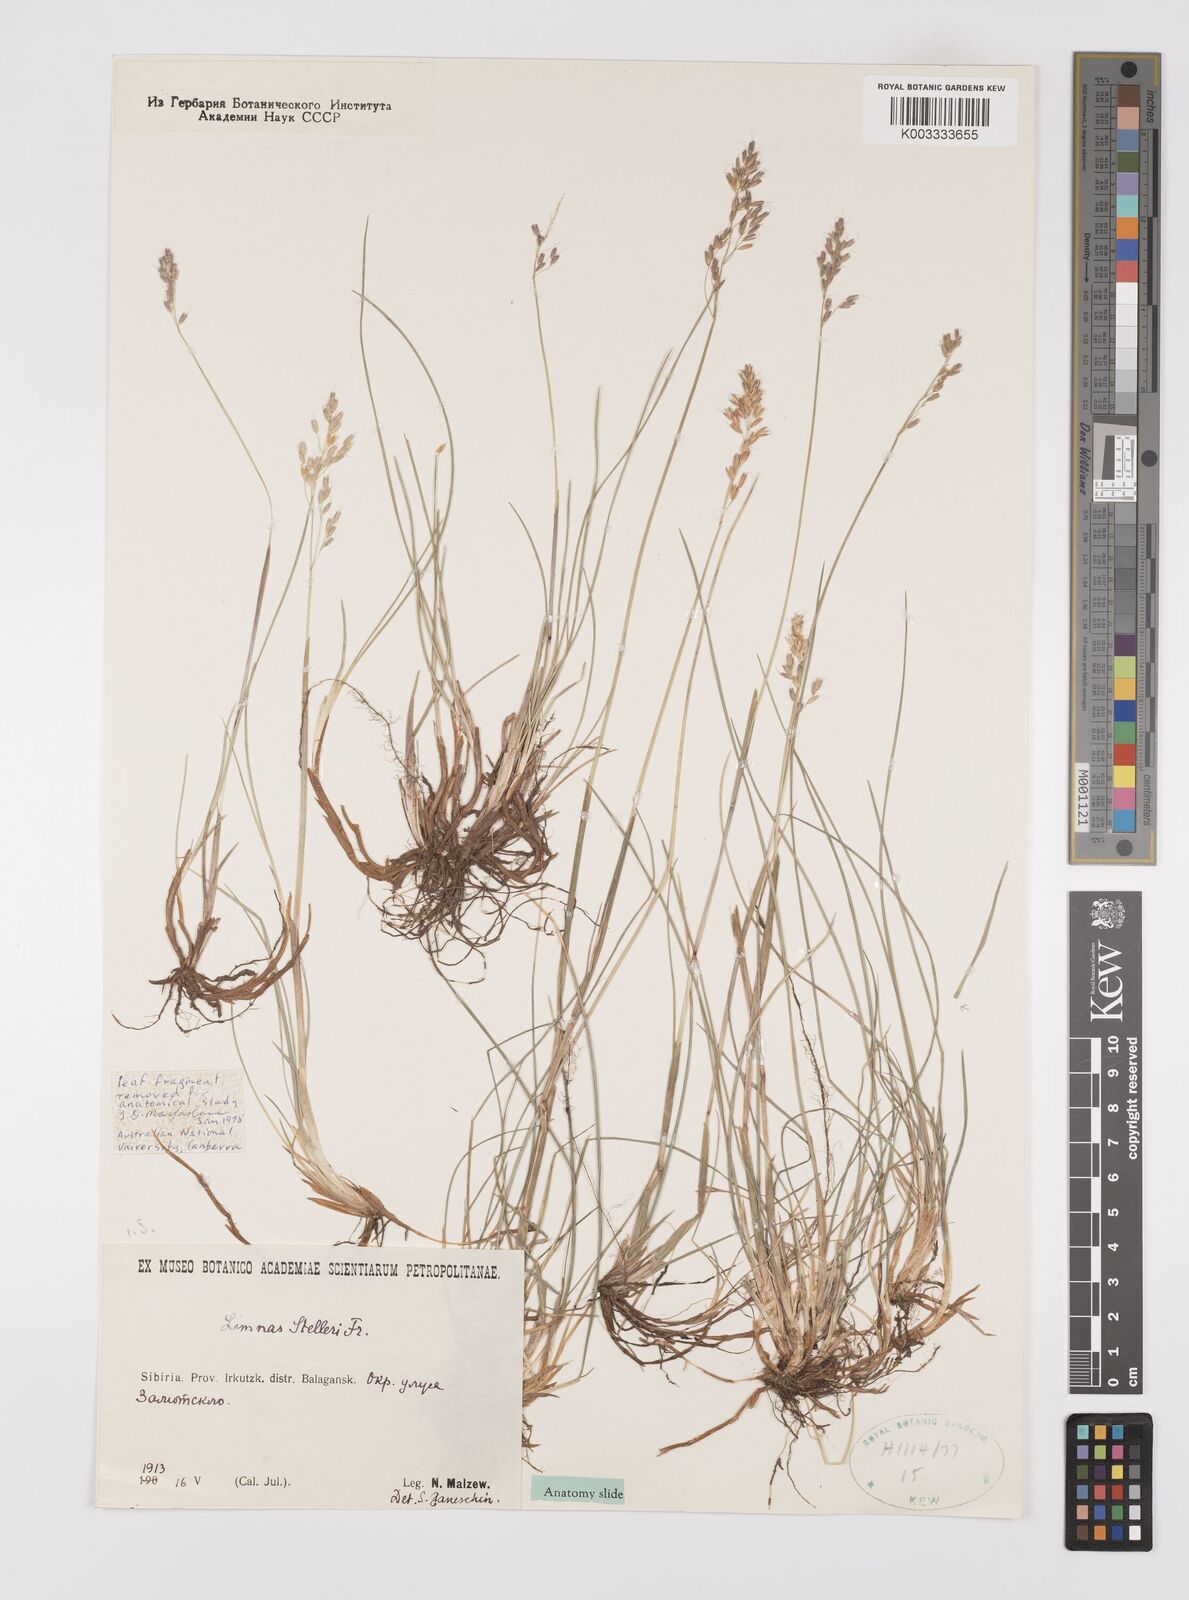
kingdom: Plantae
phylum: Tracheophyta
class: Liliopsida
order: Poales
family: Poaceae
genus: Limnas
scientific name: Limnas stelleri
